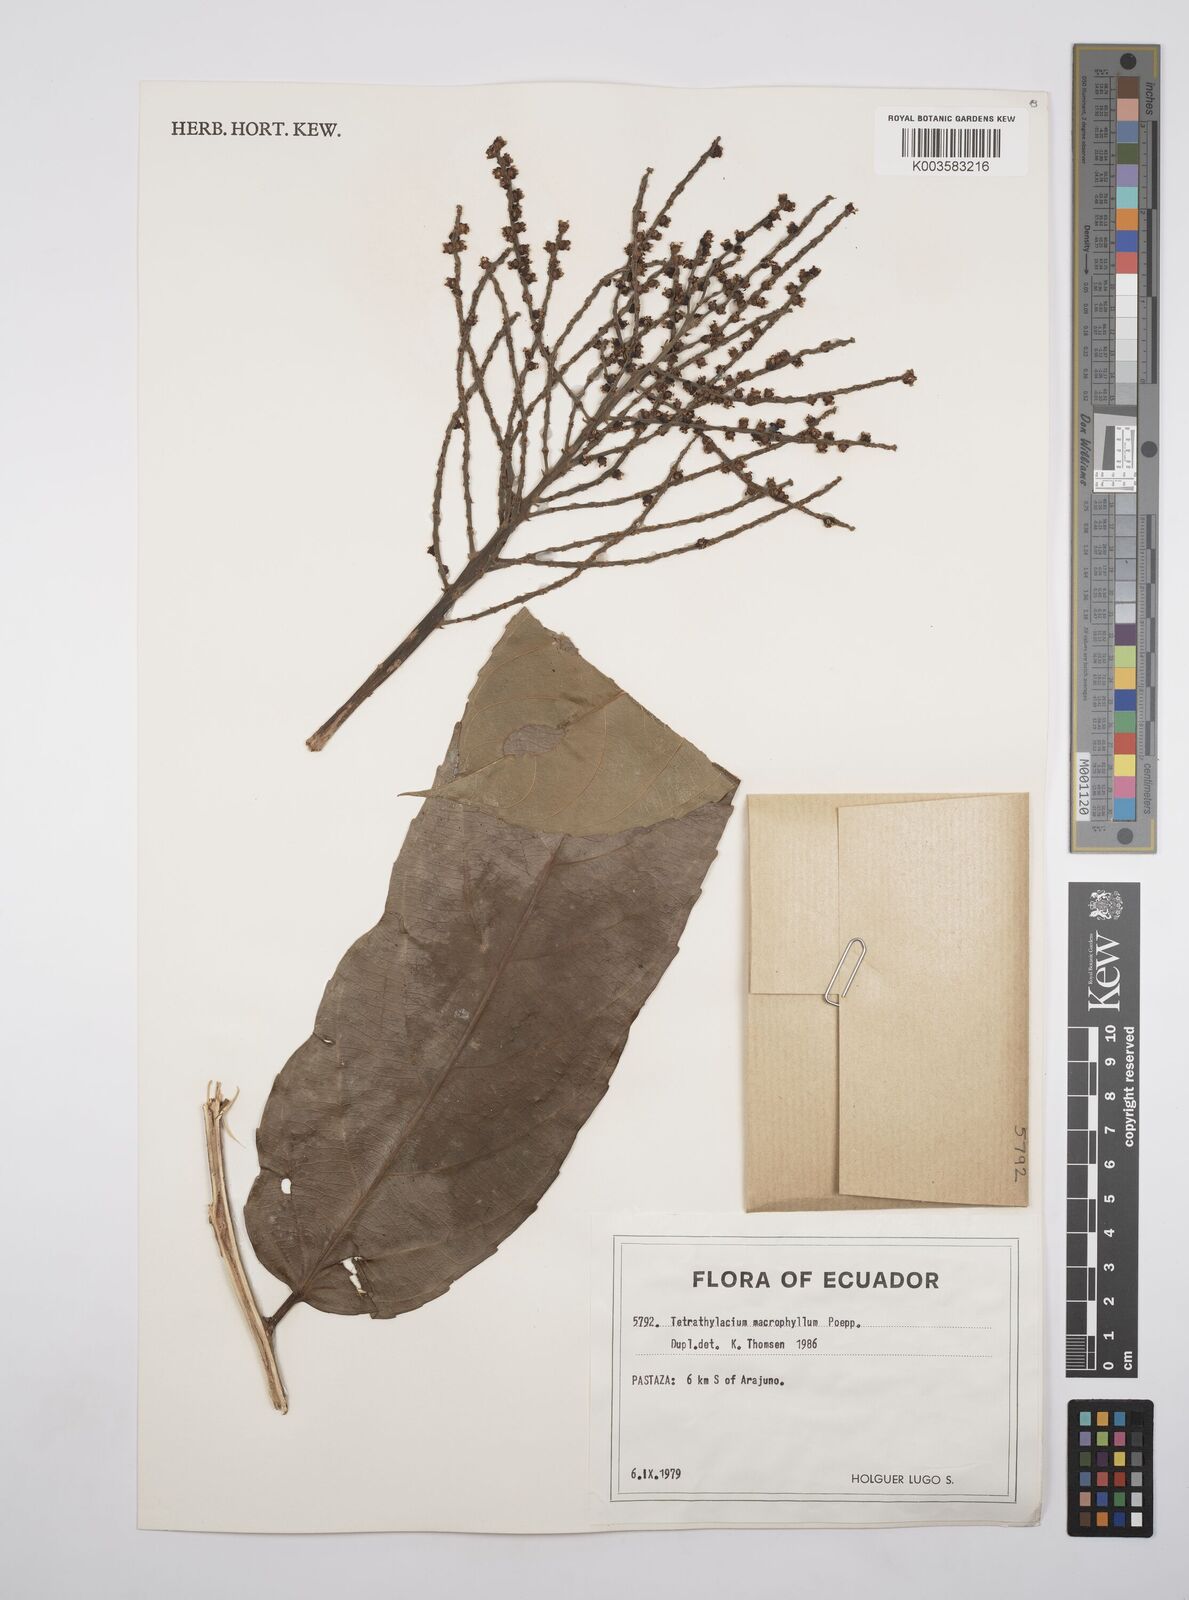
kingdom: Plantae
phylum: Tracheophyta
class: Magnoliopsida
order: Malpighiales
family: Salicaceae
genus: Tetrathylacium
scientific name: Tetrathylacium macrophyllum
